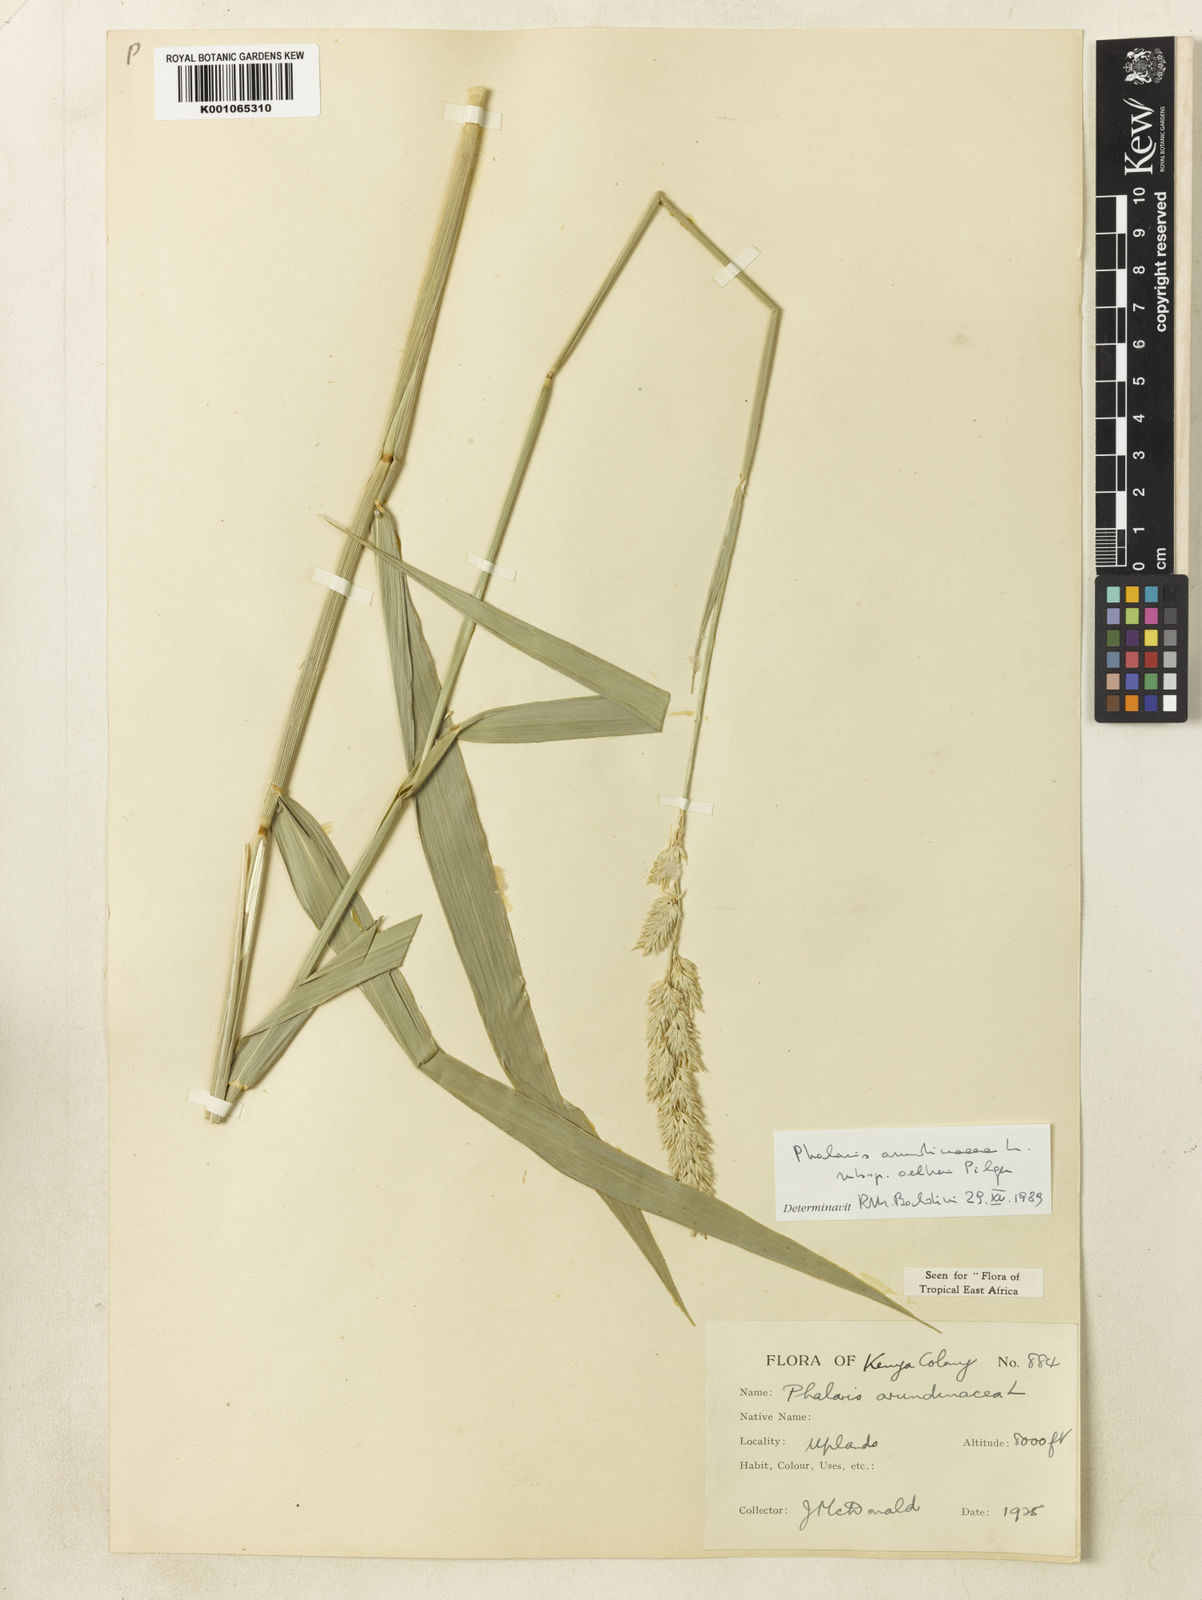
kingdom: Plantae
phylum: Tracheophyta
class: Liliopsida
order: Poales
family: Poaceae
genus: Phalaris
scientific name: Phalaris arundinacea
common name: Reed canary-grass
